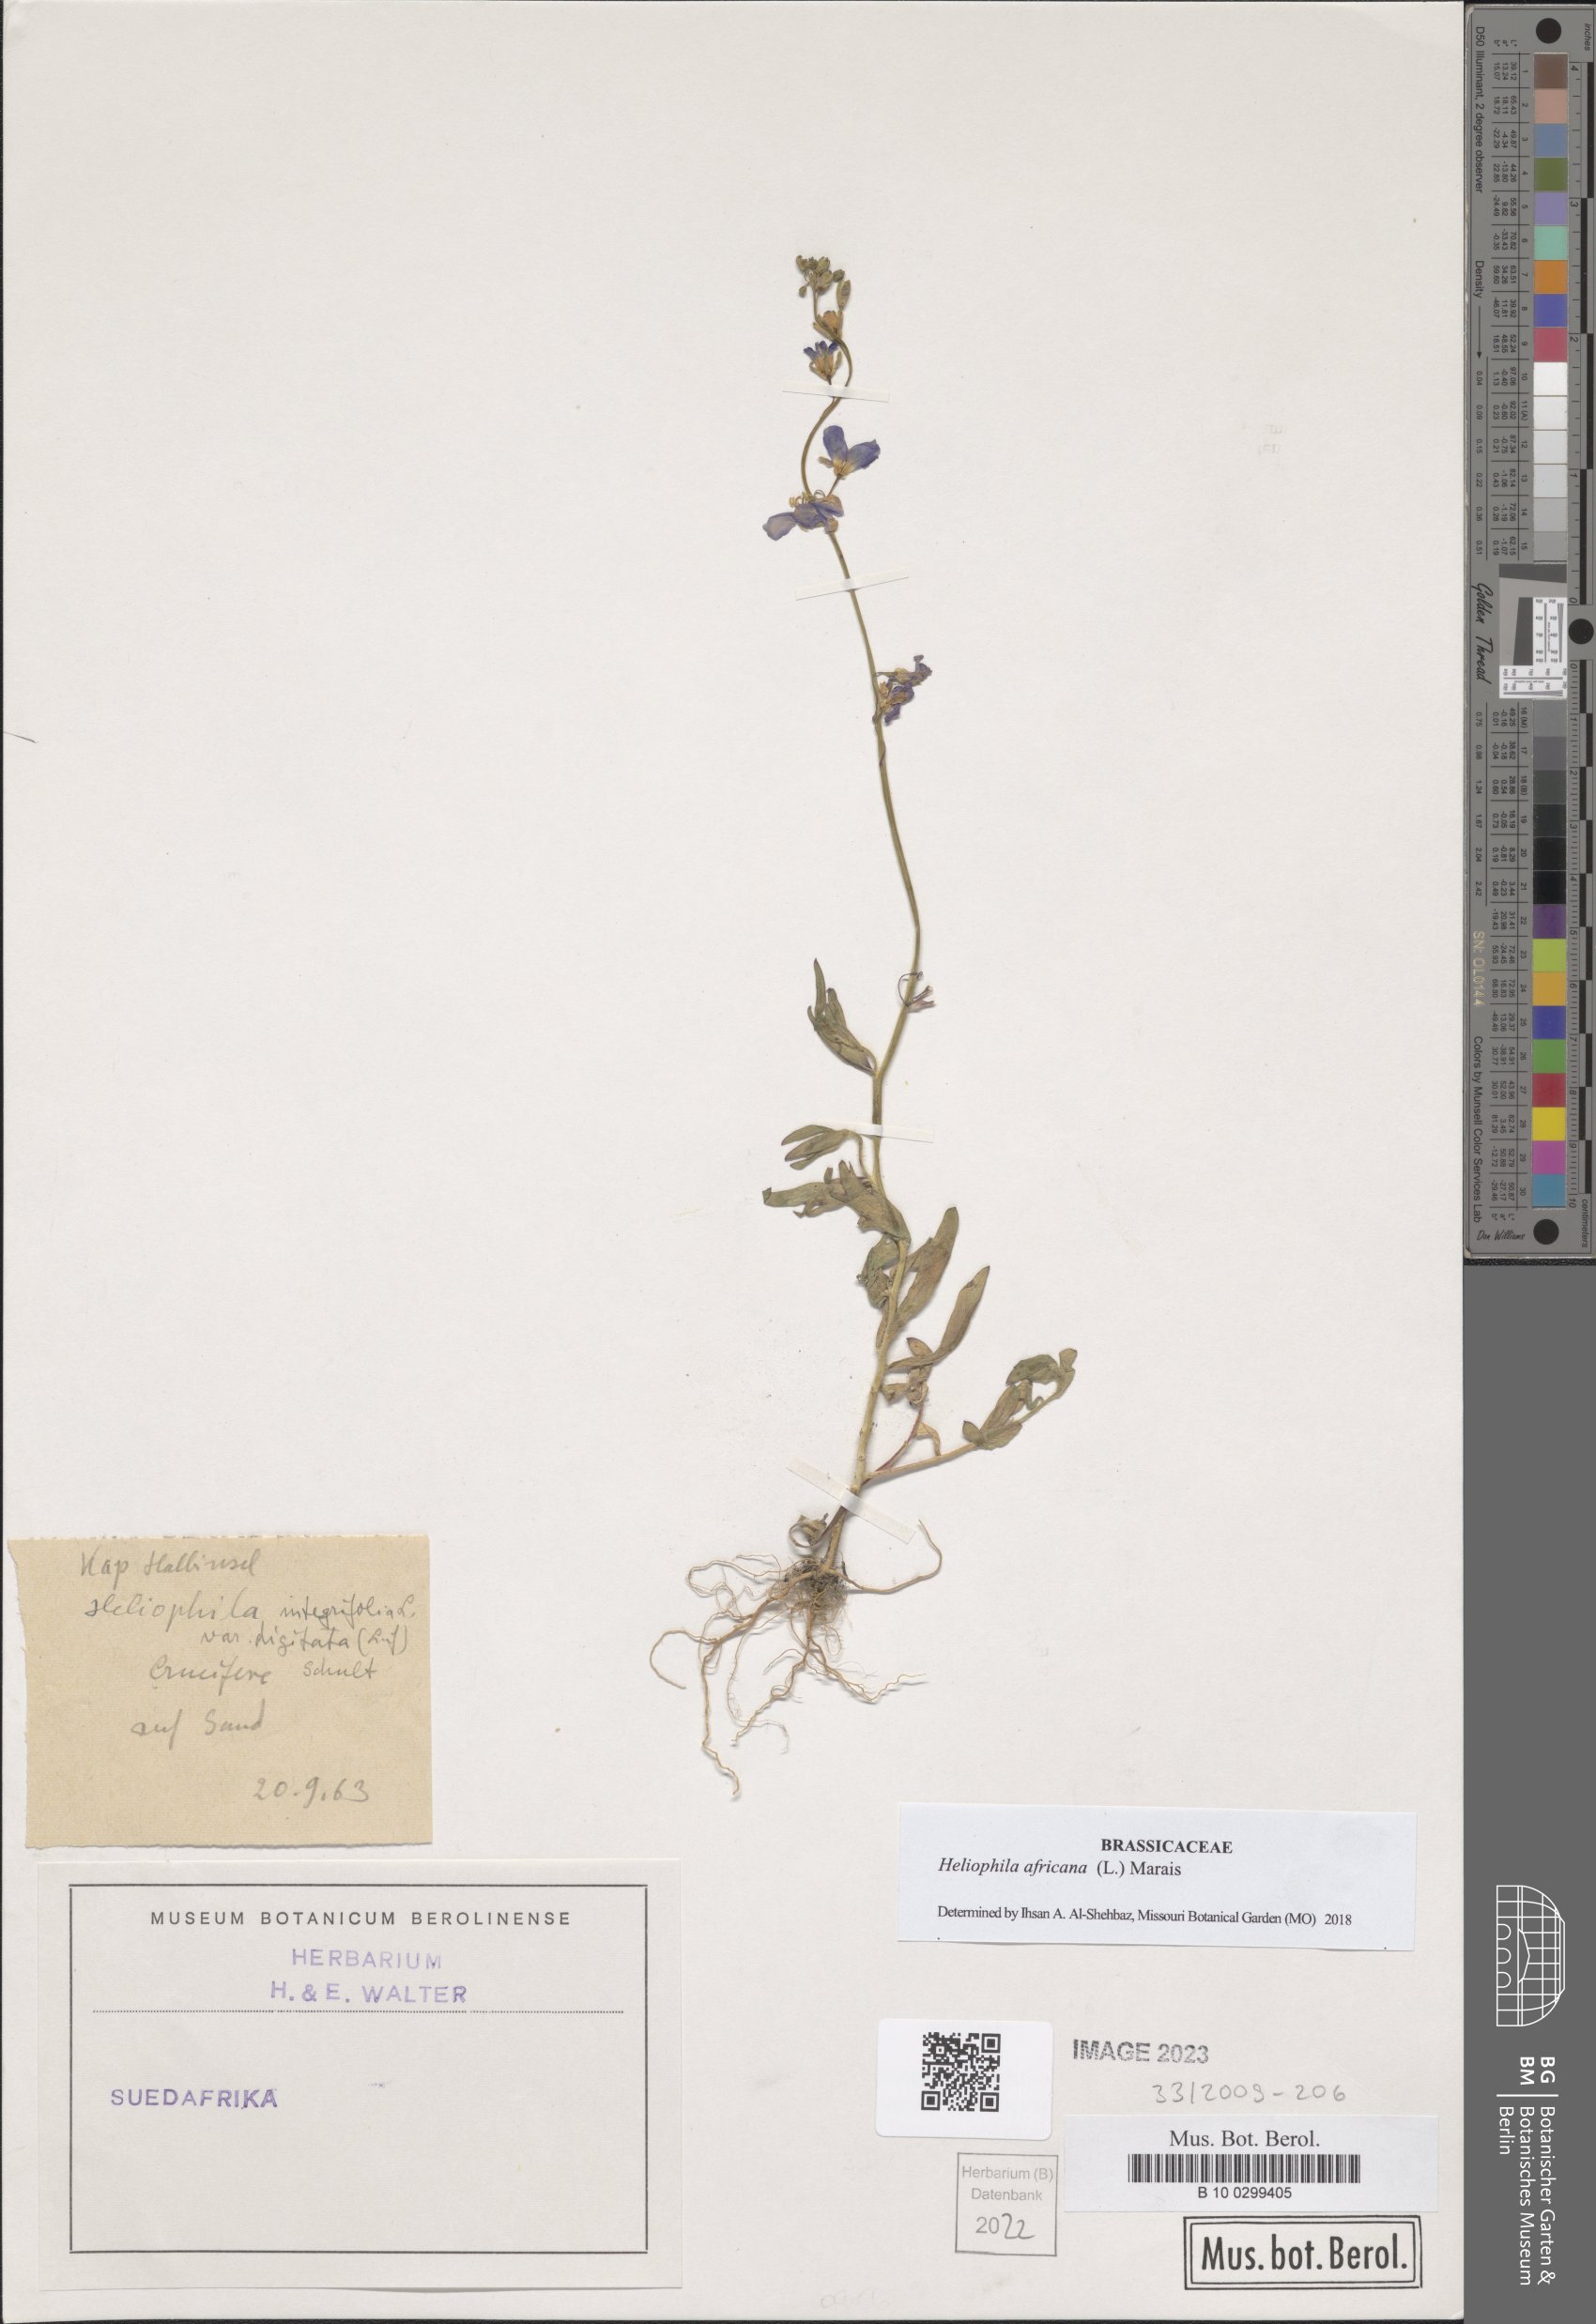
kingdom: Plantae
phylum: Tracheophyta
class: Magnoliopsida
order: Brassicales
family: Brassicaceae
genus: Heliophila
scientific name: Heliophila africana
